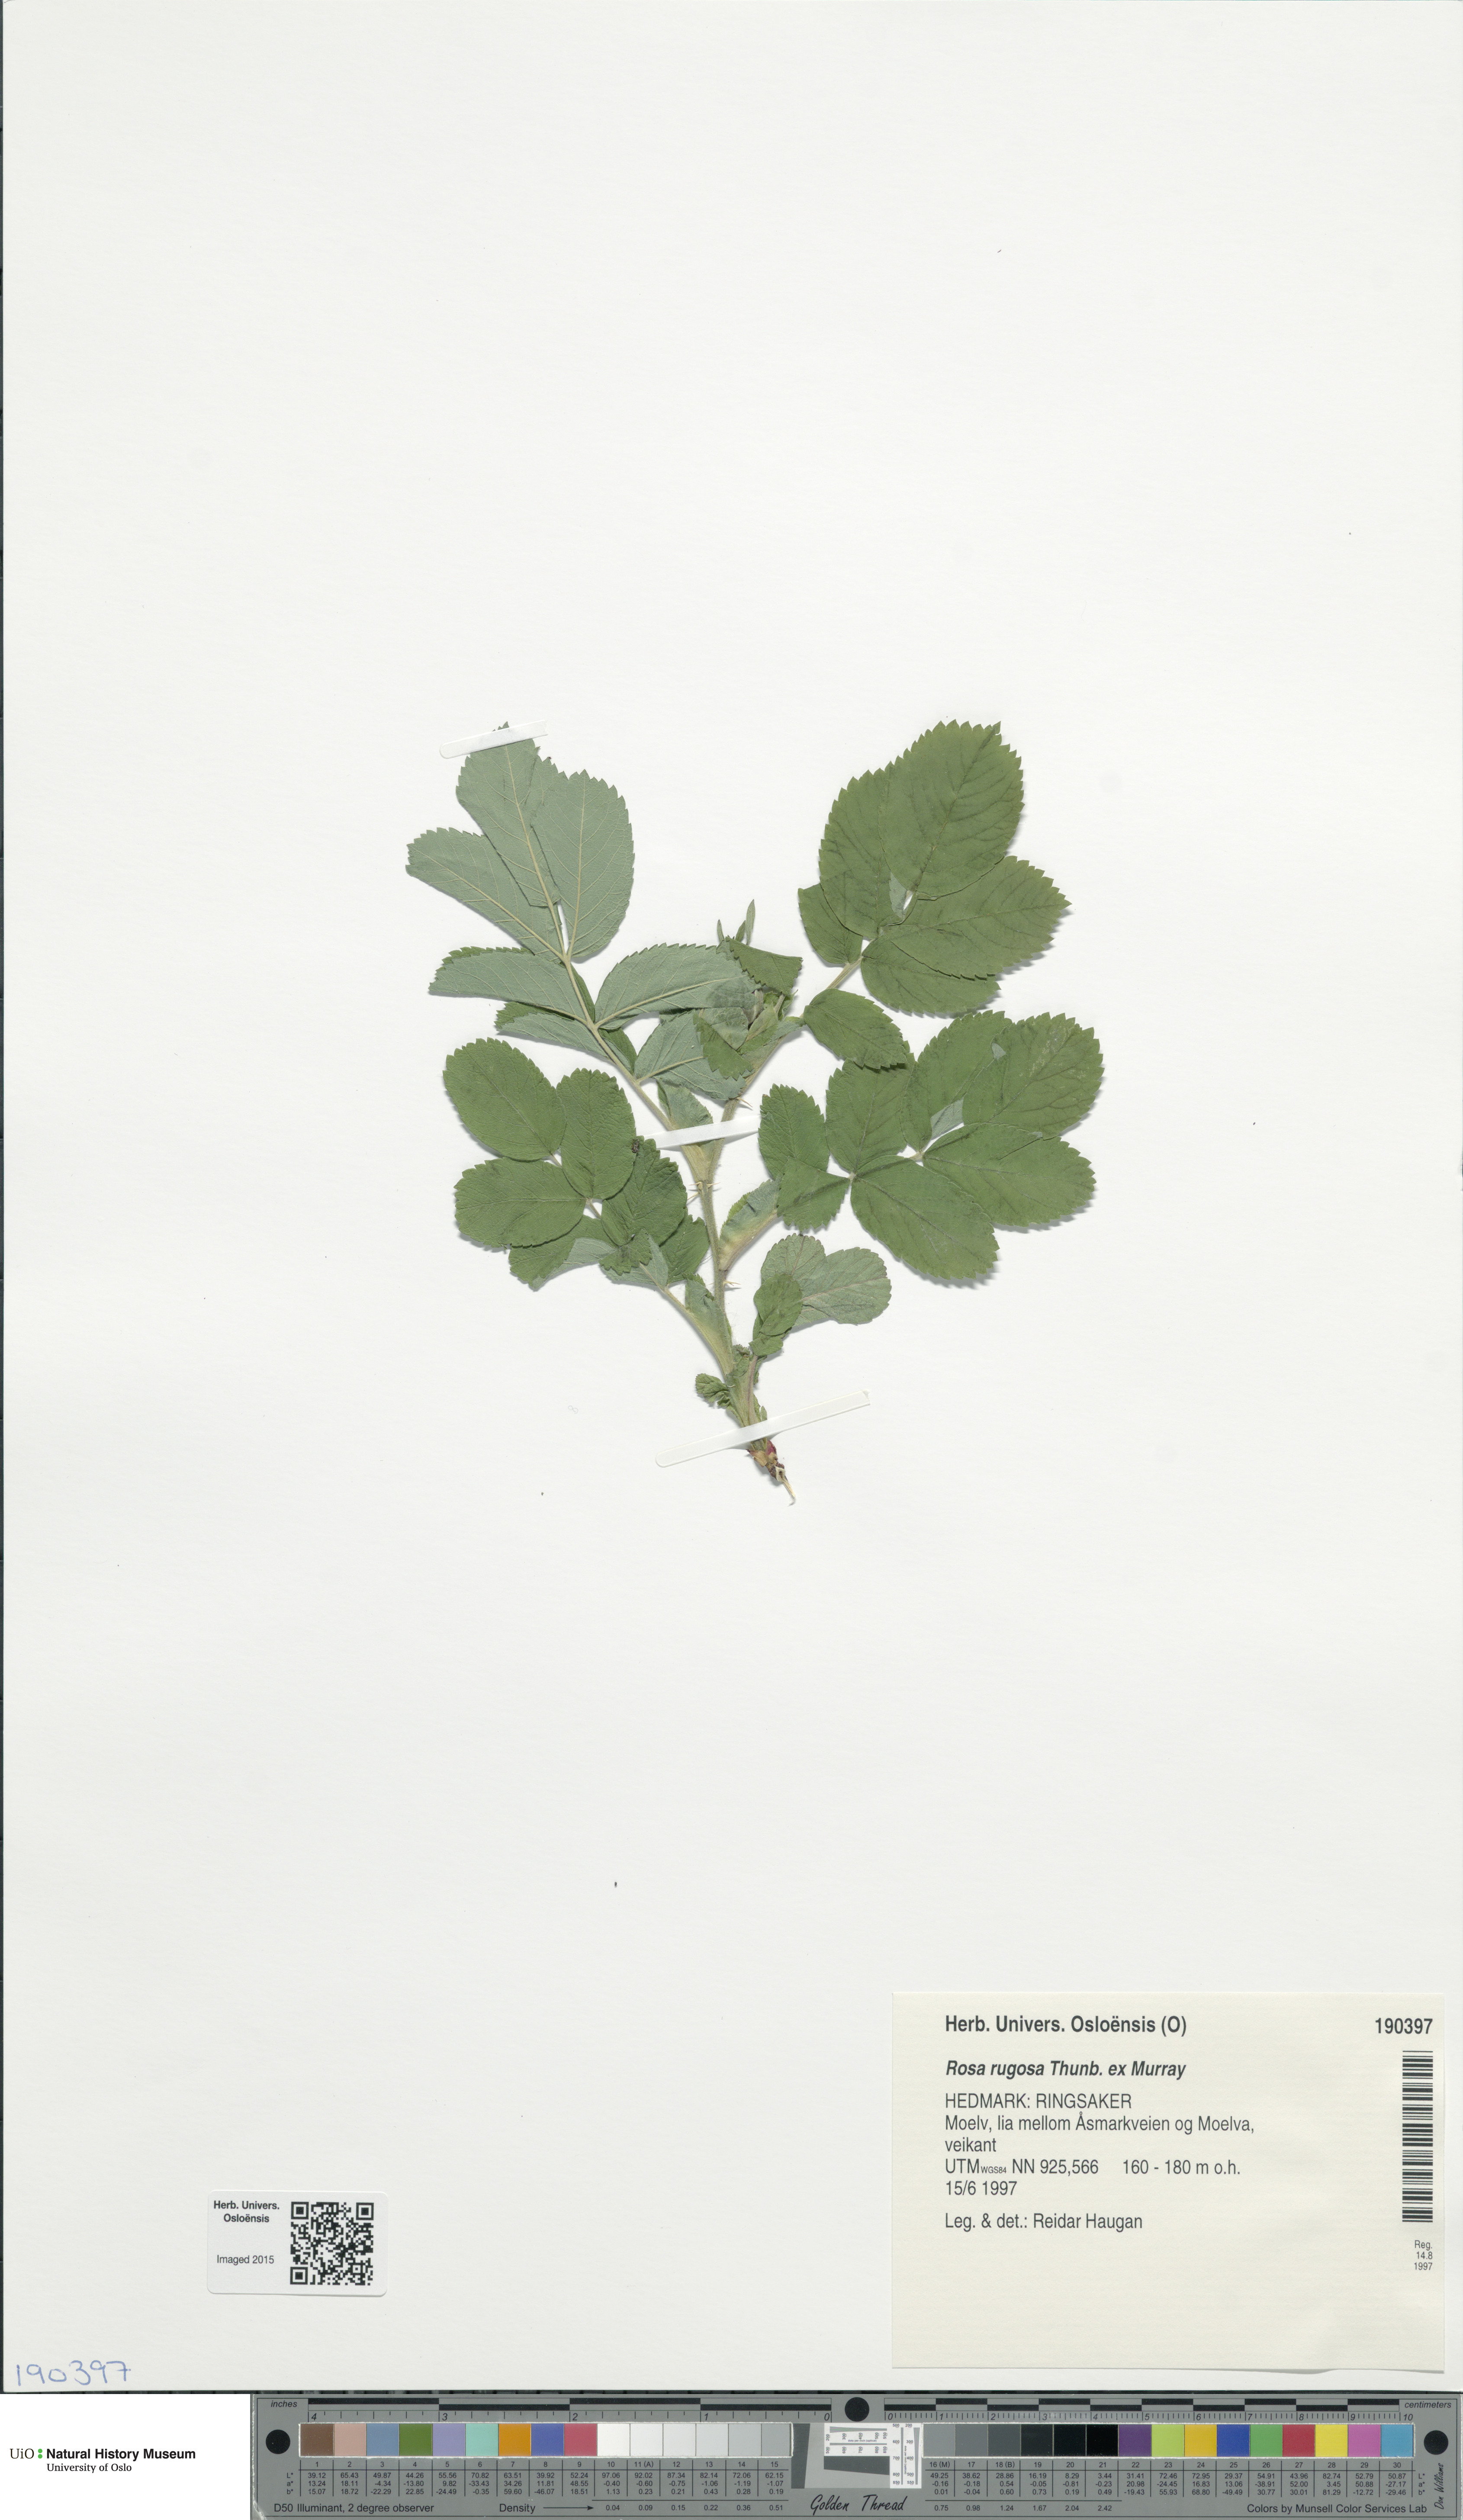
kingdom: Plantae
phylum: Tracheophyta
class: Magnoliopsida
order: Rosales
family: Rosaceae
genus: Rosa
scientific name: Rosa rugosa
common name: Japanese rose
